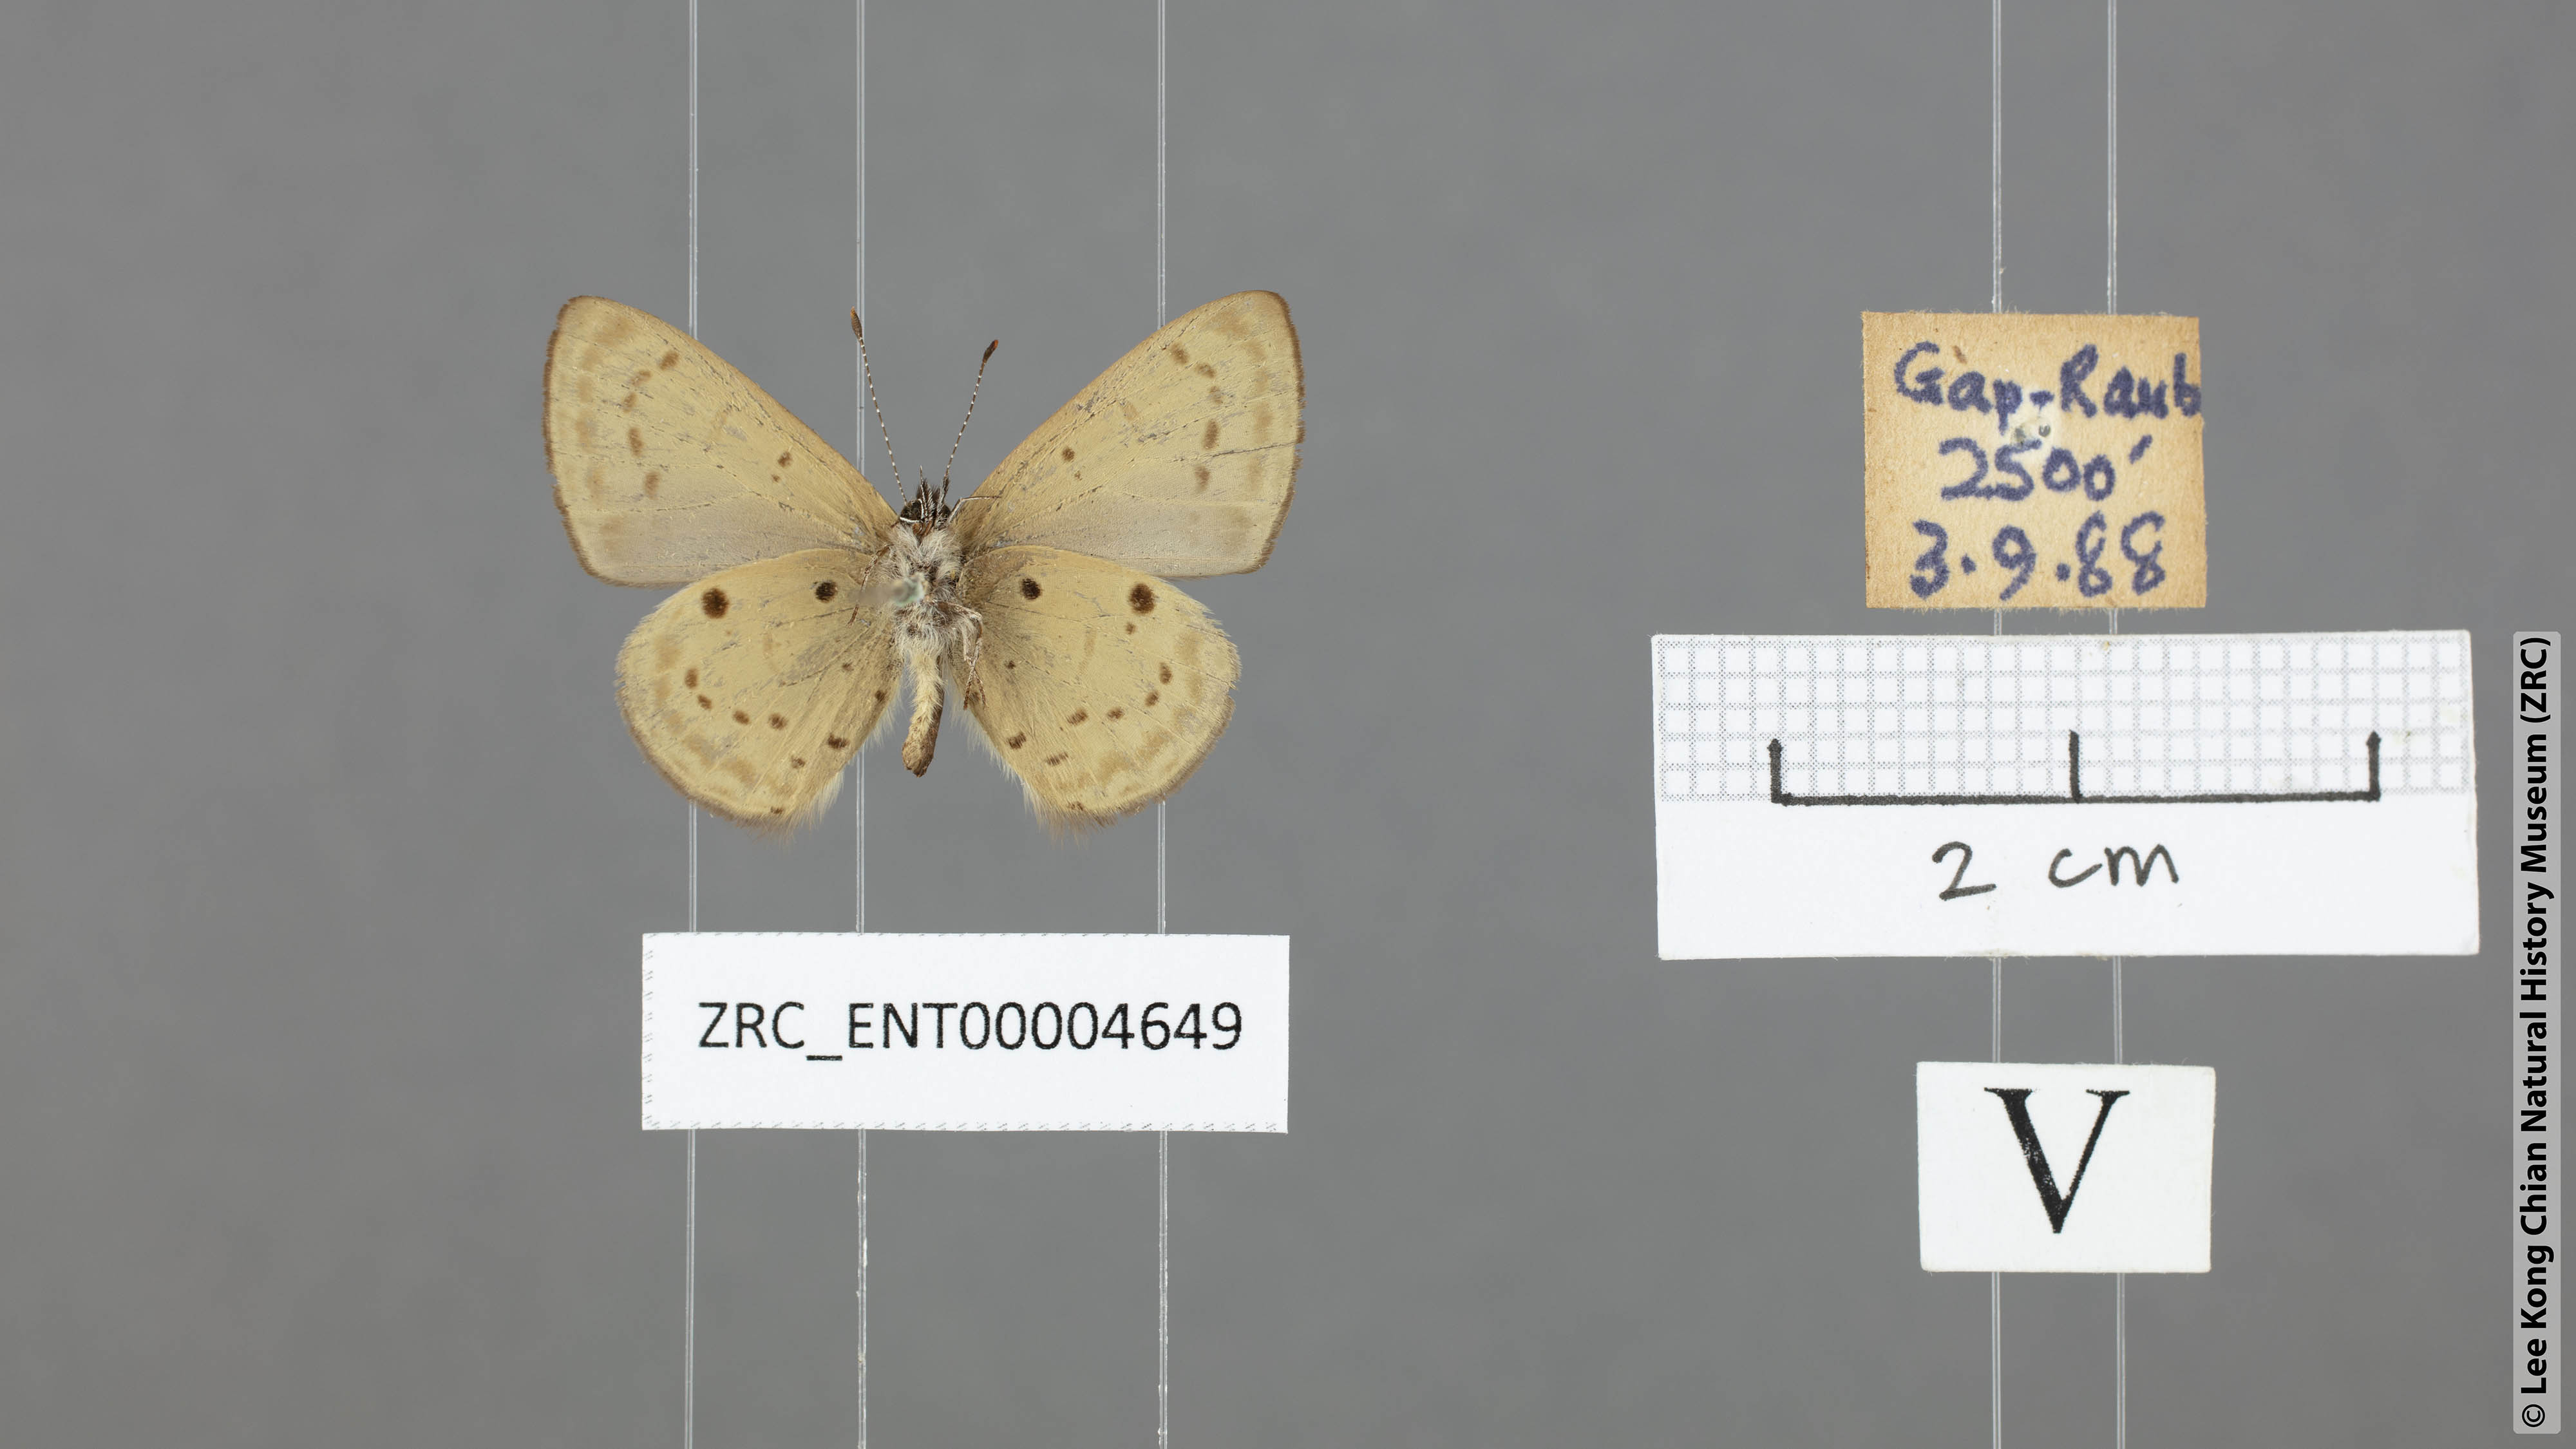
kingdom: Animalia
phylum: Arthropoda
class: Insecta
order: Lepidoptera
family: Lycaenidae
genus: Una
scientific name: Una usta
